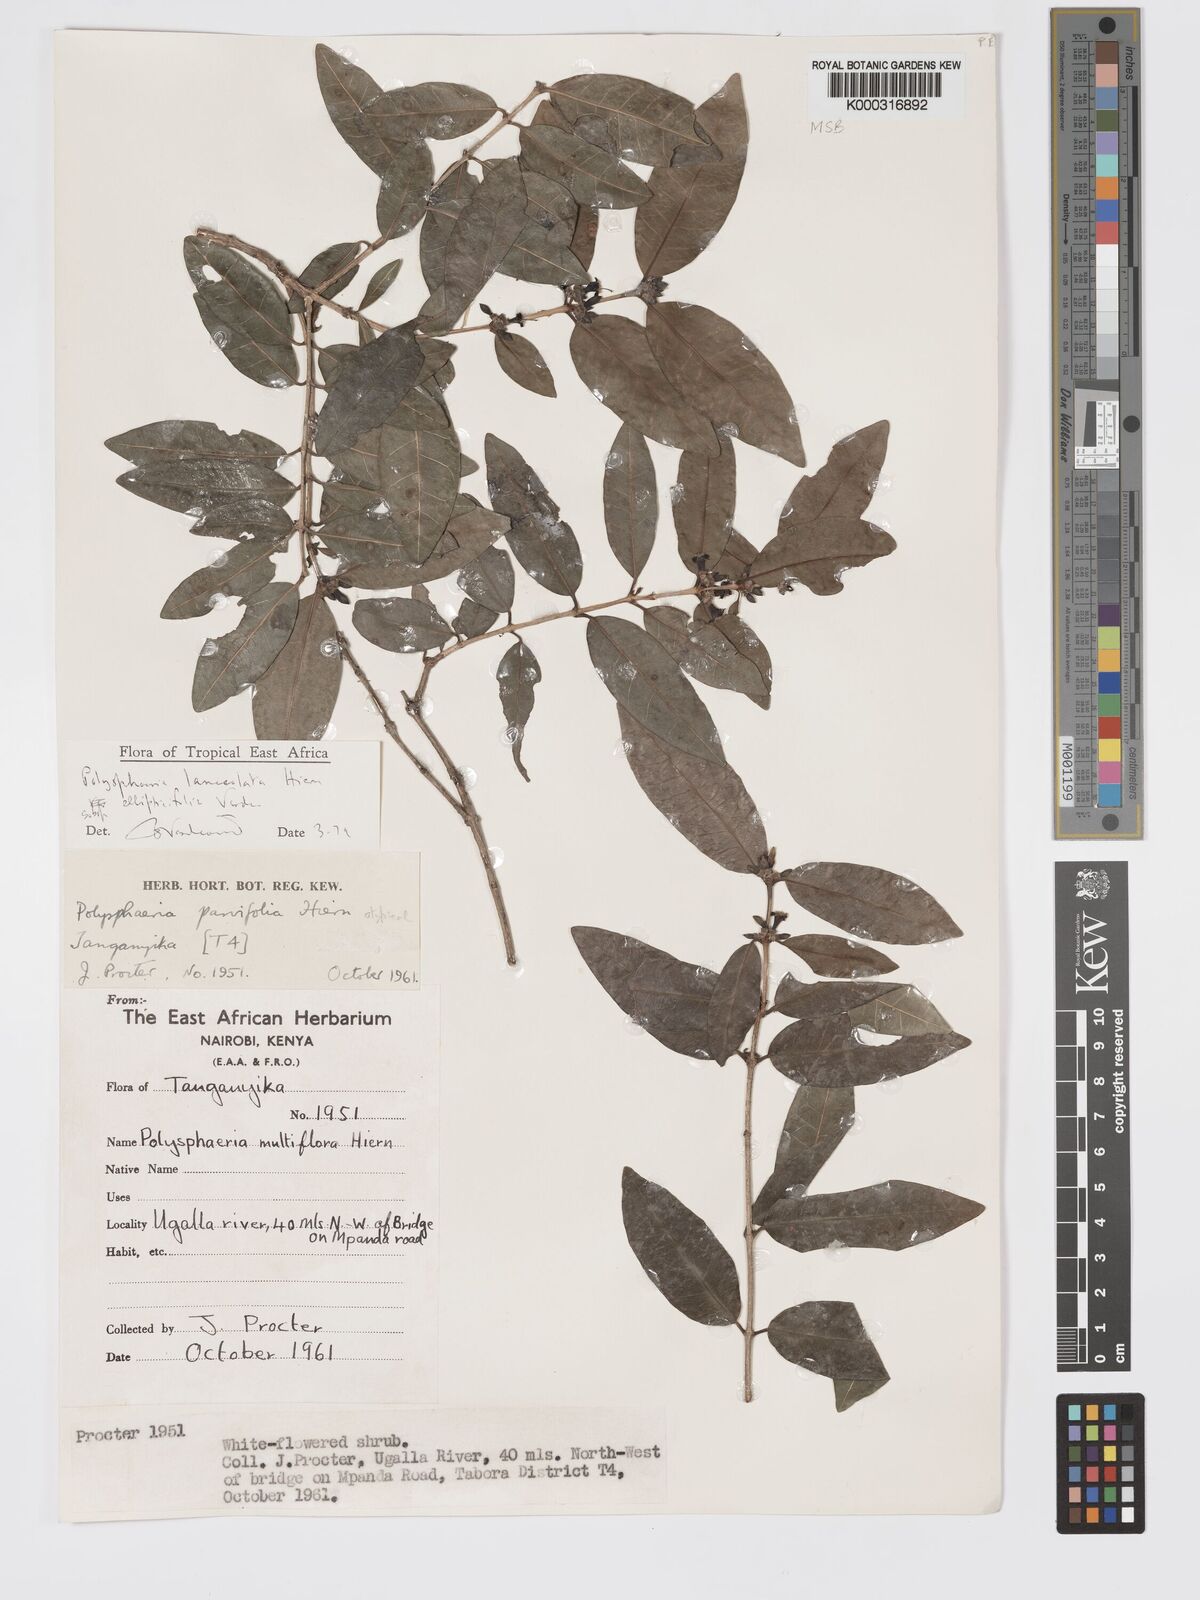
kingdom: Plantae
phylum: Tracheophyta
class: Magnoliopsida
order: Gentianales
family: Rubiaceae
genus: Polysphaeria
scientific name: Polysphaeria lanceolata
